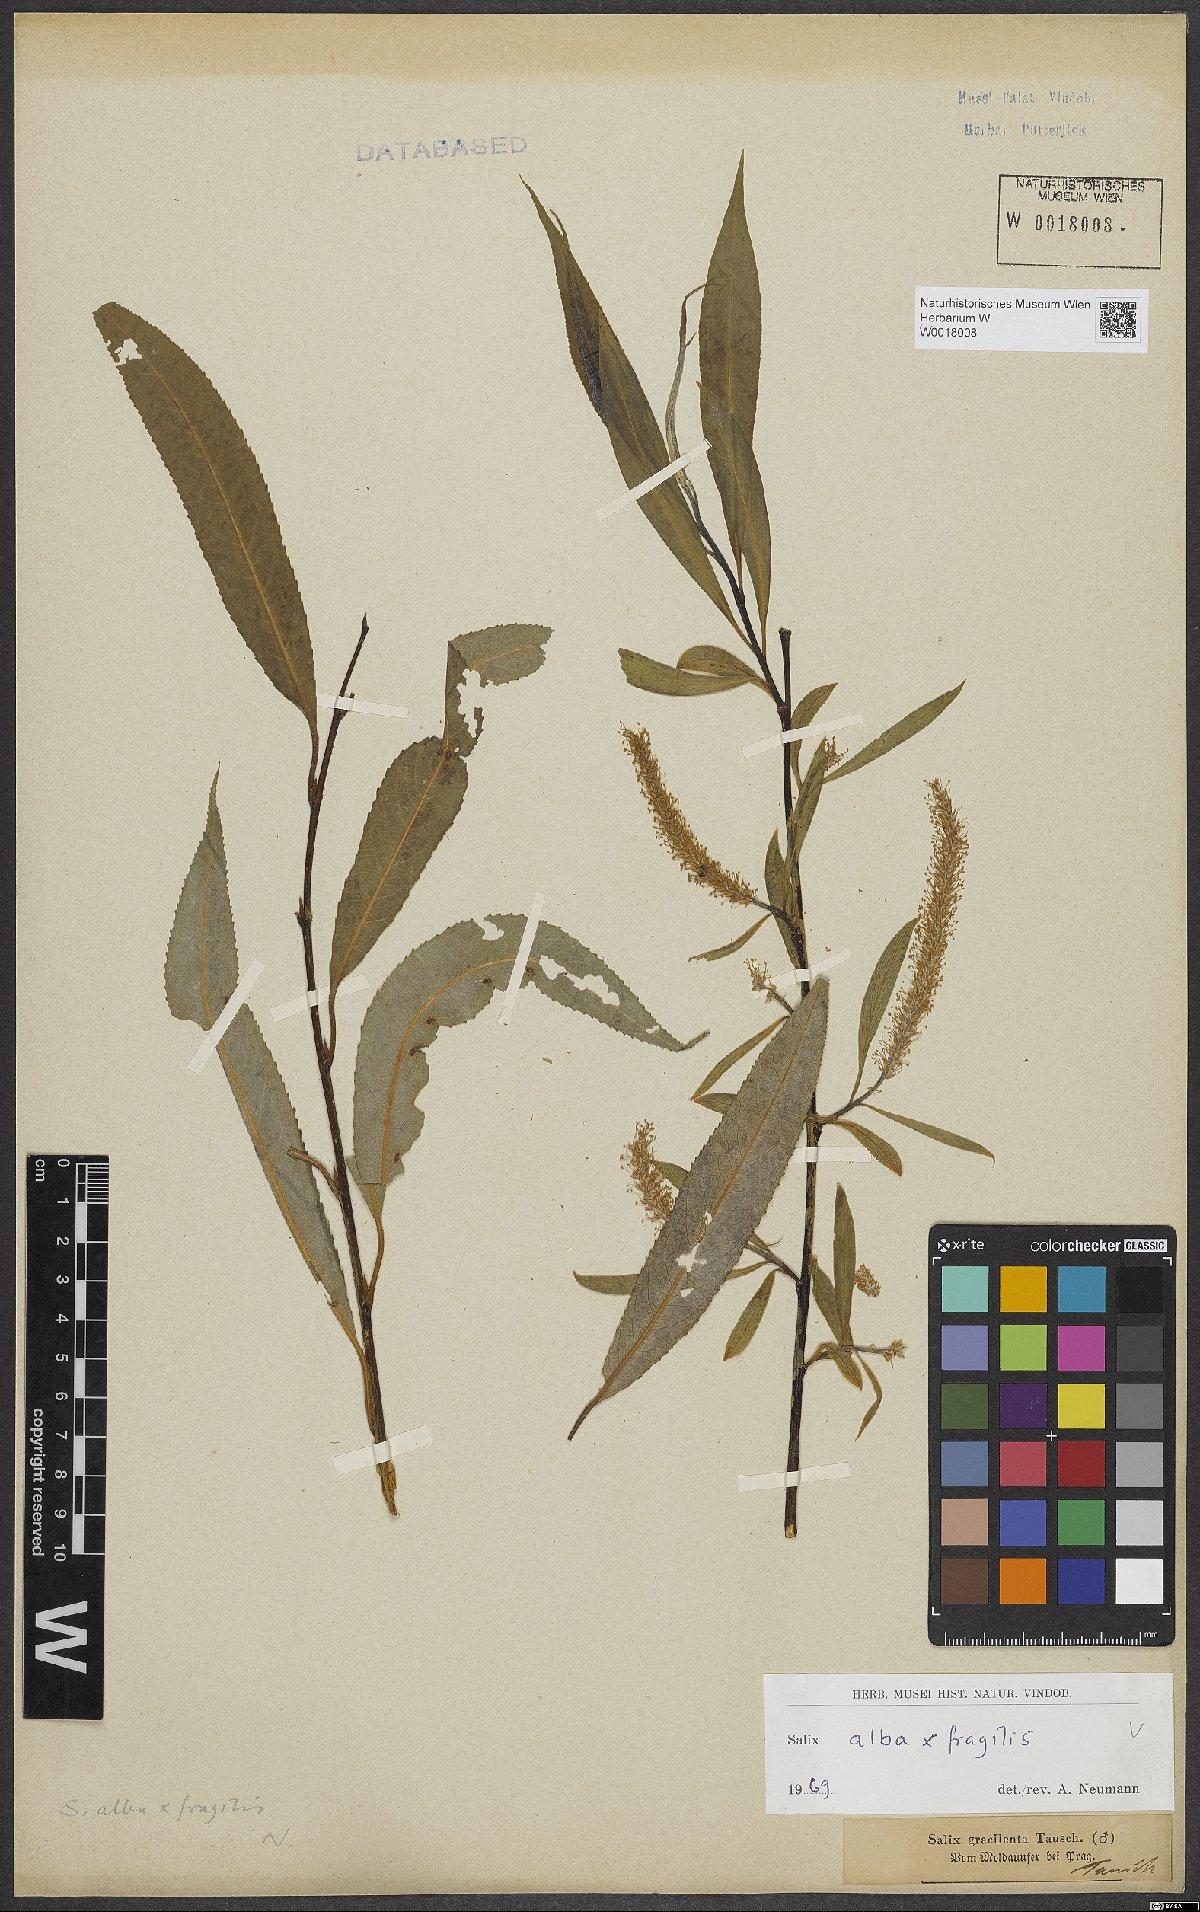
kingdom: Plantae
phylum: Tracheophyta
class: Magnoliopsida
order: Malpighiales
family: Salicaceae
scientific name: Salicaceae
